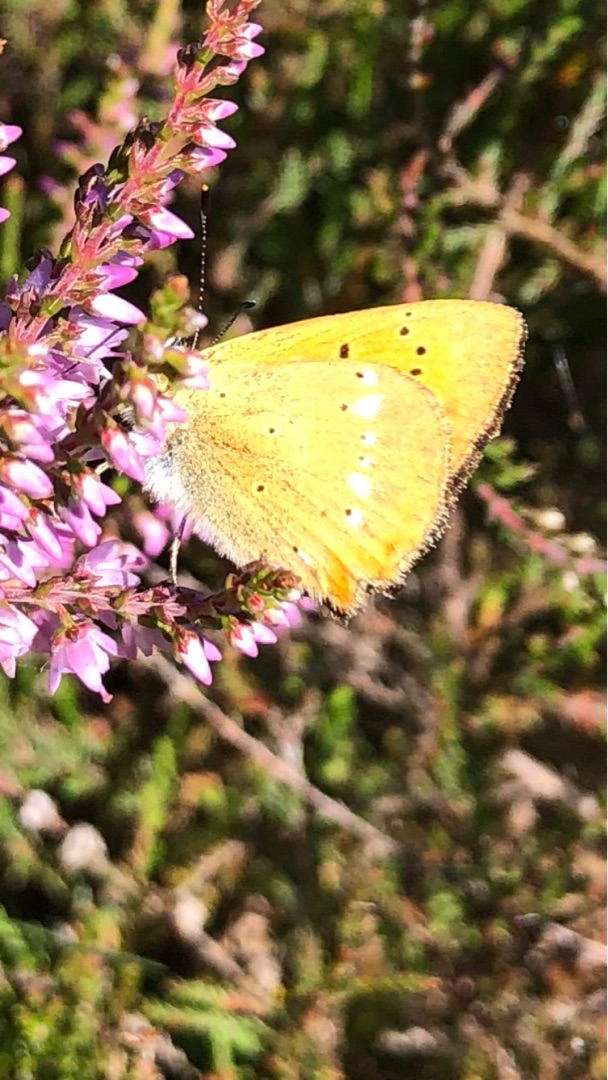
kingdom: Animalia
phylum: Arthropoda
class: Insecta
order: Lepidoptera
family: Lycaenidae
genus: Lycaena
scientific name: Lycaena virgaureae
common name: Dukatsommerfugl
